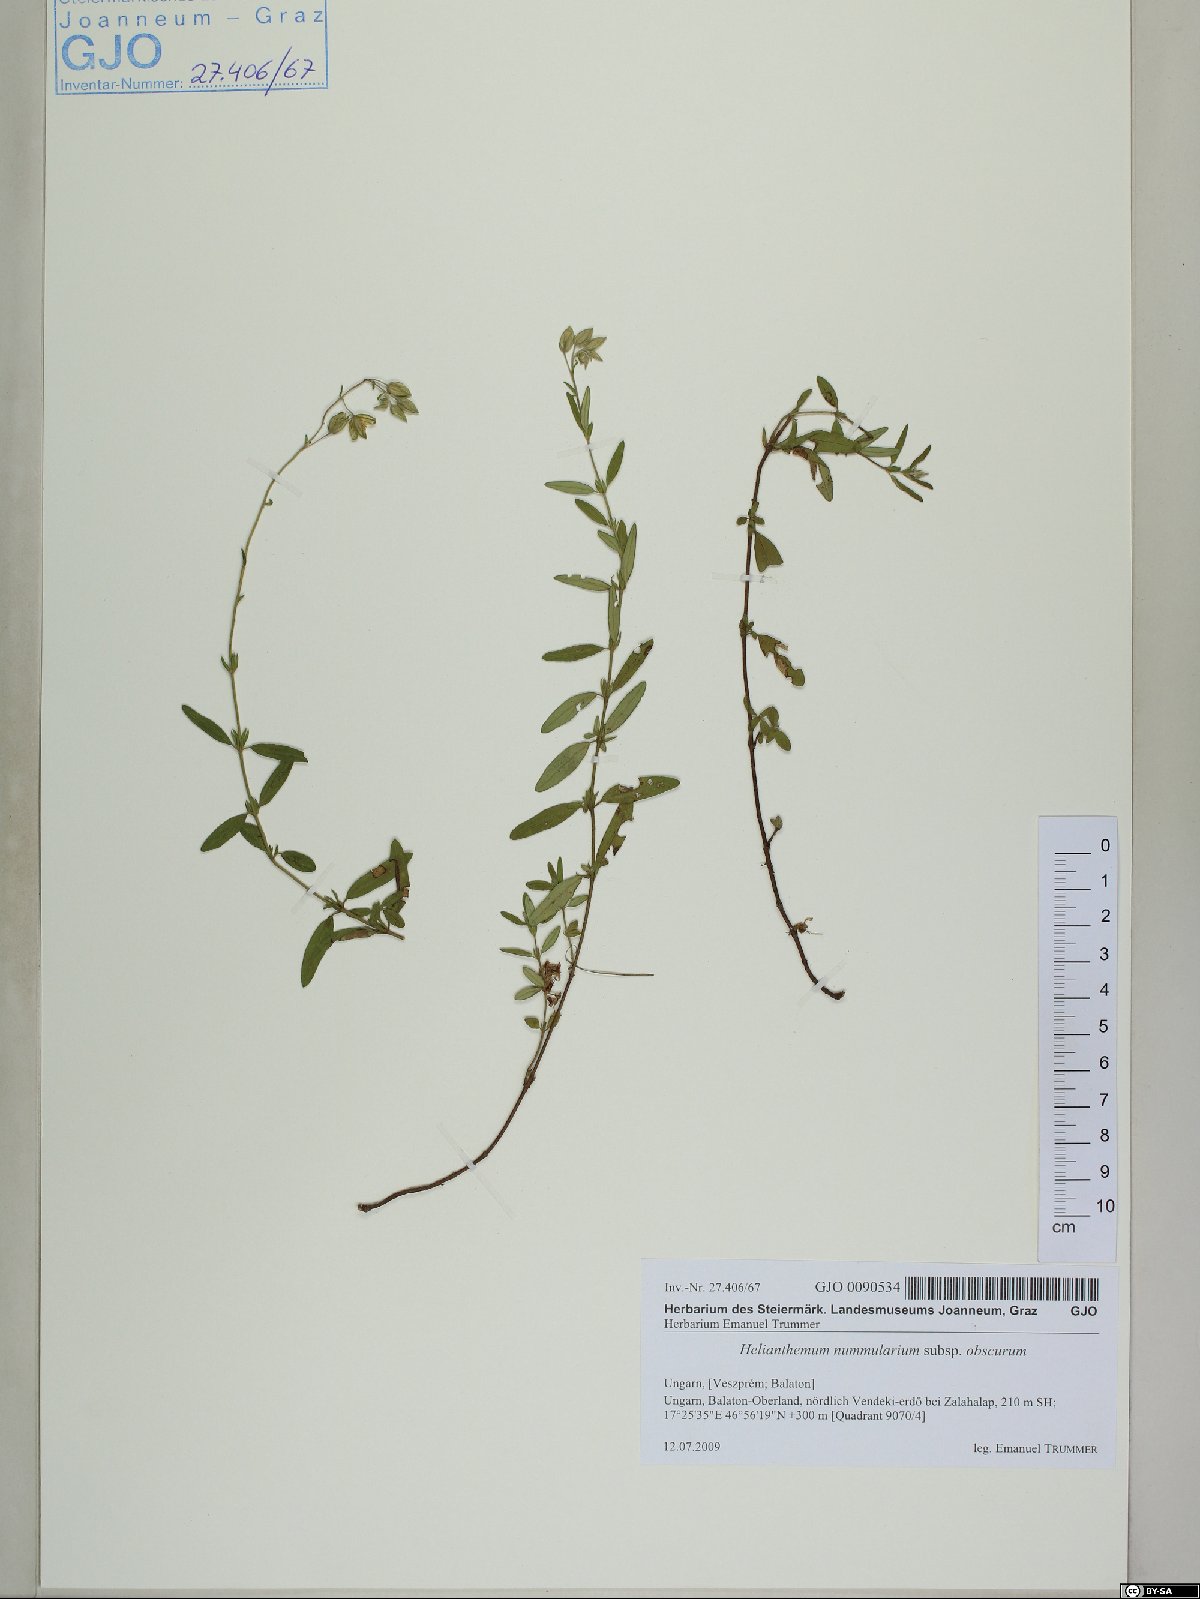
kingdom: Plantae
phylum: Tracheophyta
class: Magnoliopsida
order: Malvales
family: Cistaceae
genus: Helianthemum
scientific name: Helianthemum nummularium
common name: Common rock-rose
